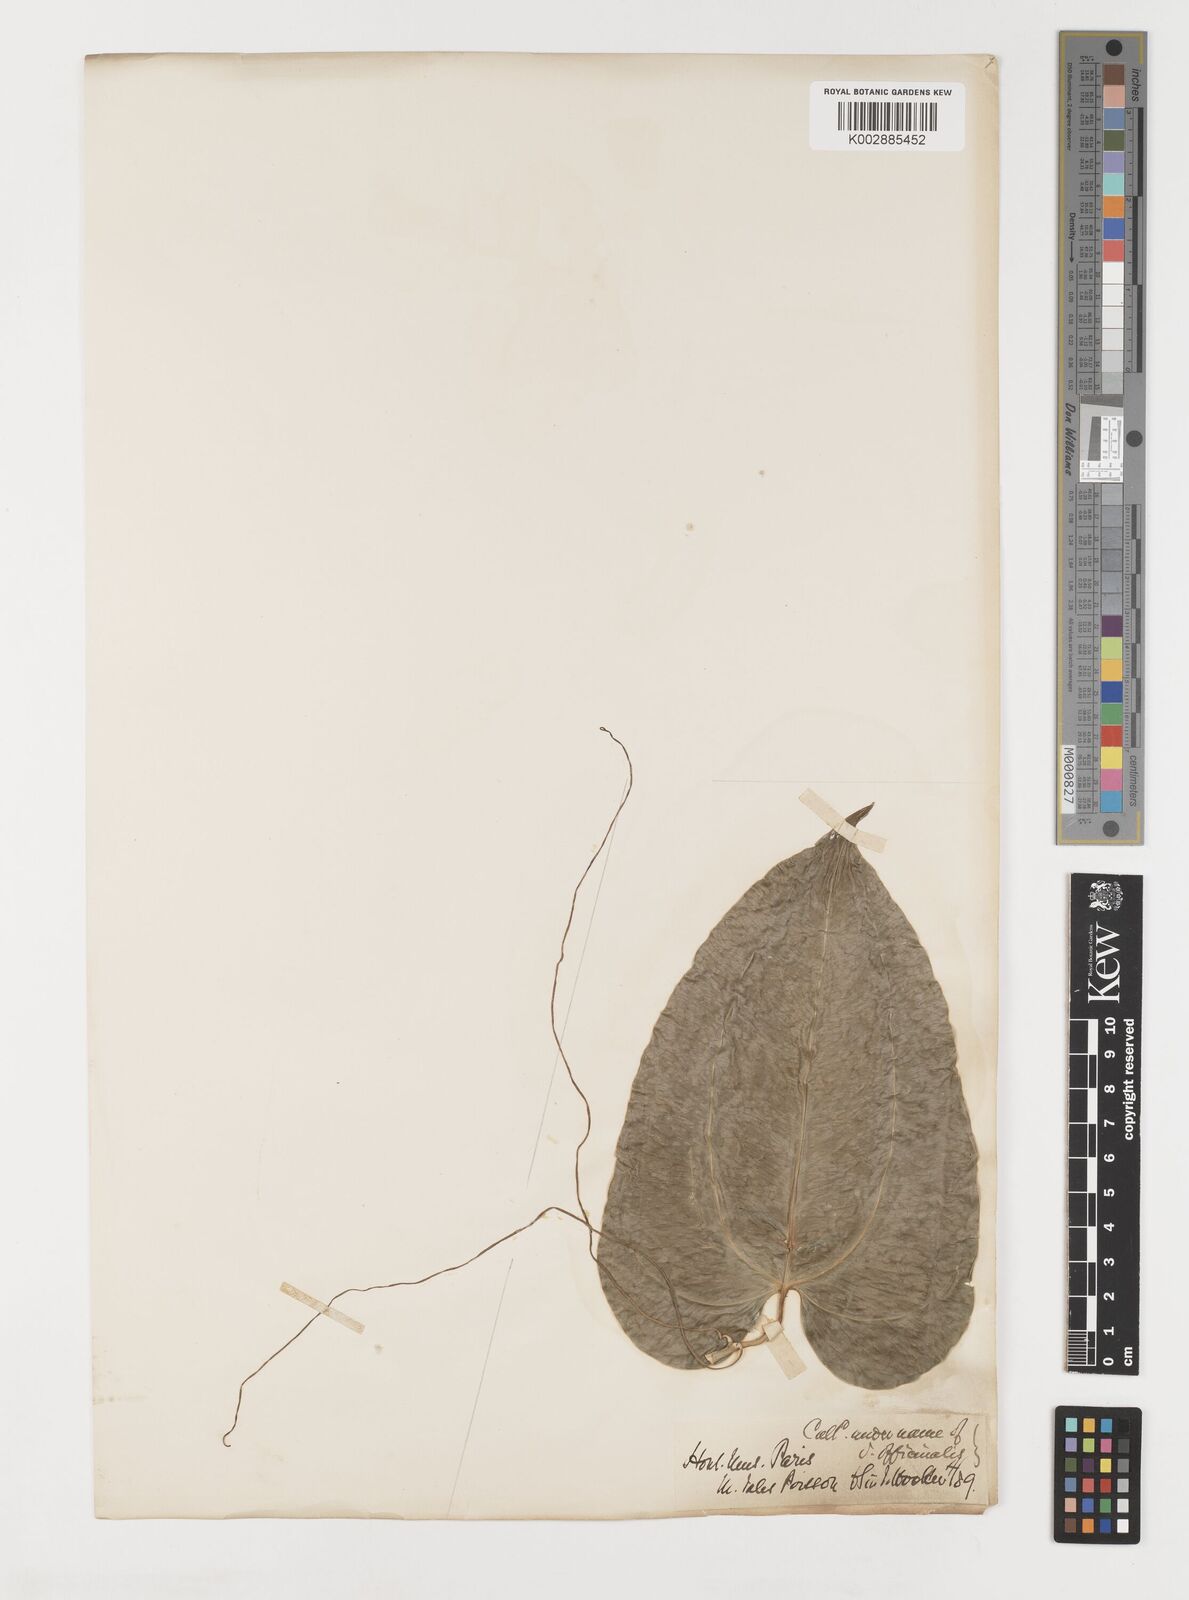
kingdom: Plantae
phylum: Tracheophyta
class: Liliopsida
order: Liliales
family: Smilacaceae
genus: Smilax
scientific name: Smilax
